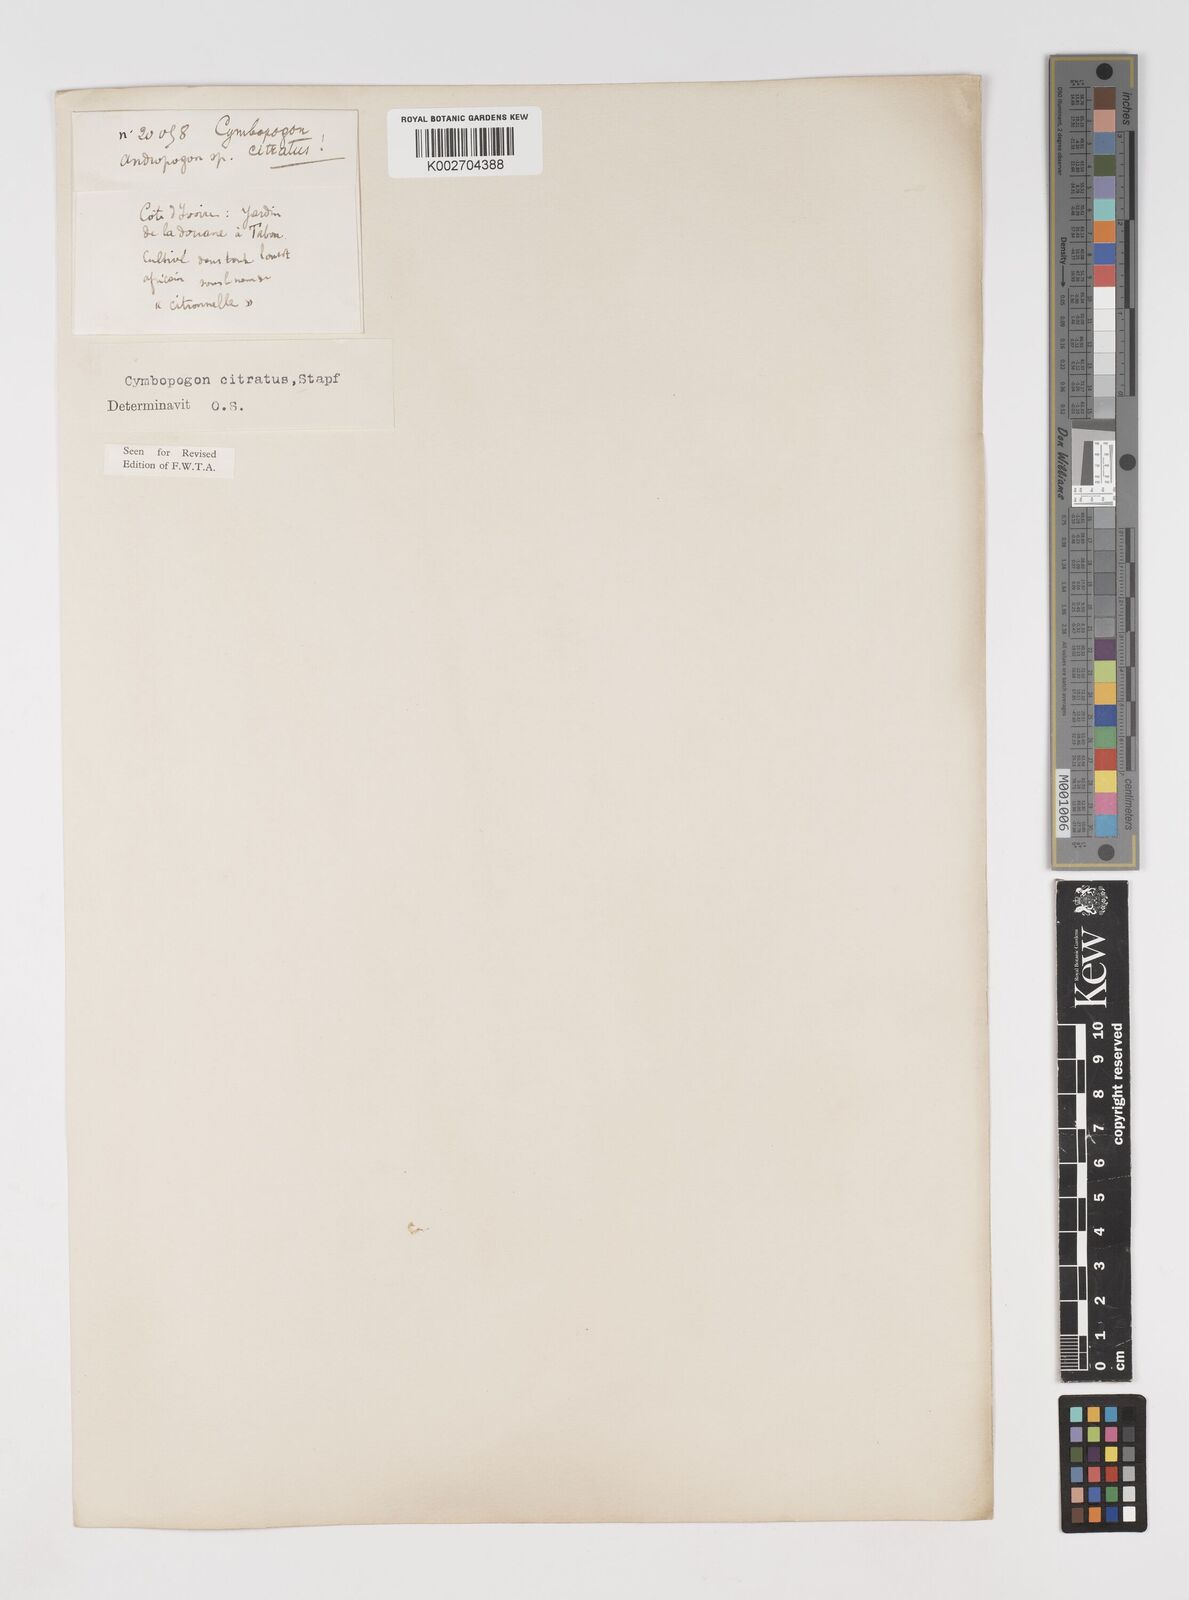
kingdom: Plantae
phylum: Tracheophyta
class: Liliopsida
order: Poales
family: Poaceae
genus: Cymbopogon
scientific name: Cymbopogon citratus
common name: Lemon grass
